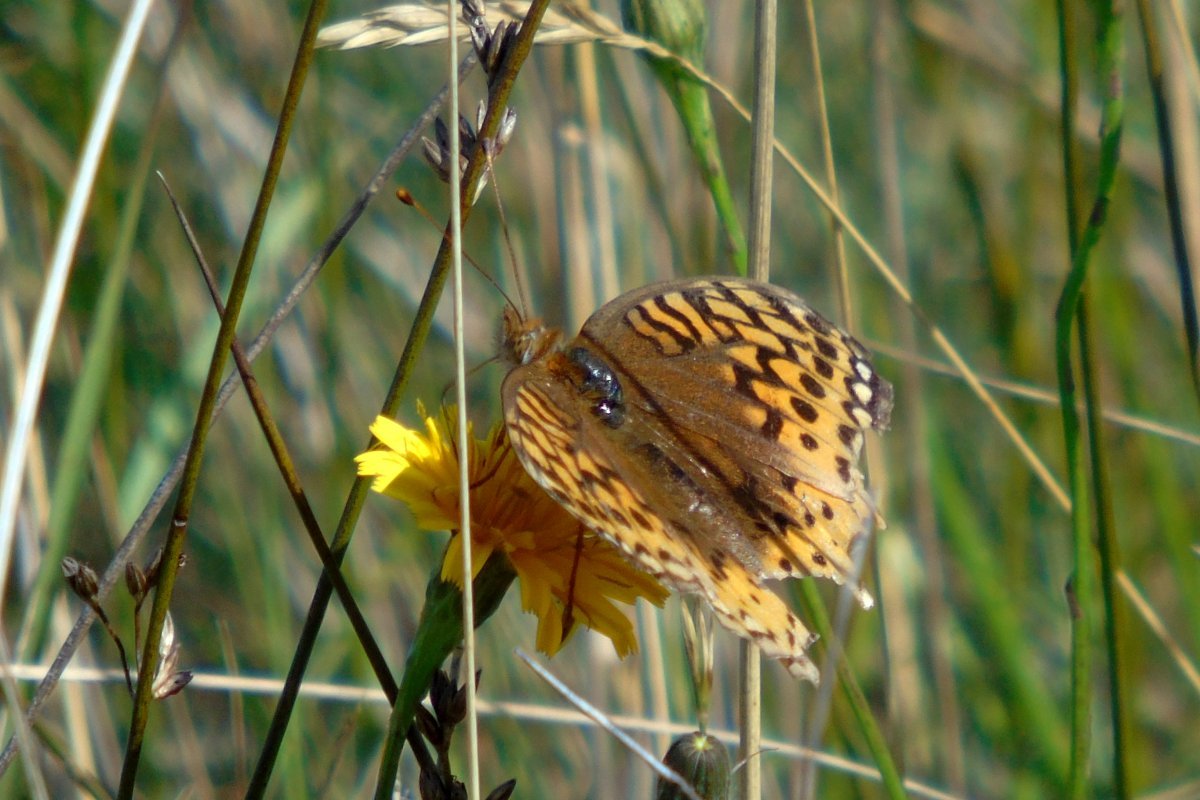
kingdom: Animalia
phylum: Arthropoda
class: Insecta
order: Lepidoptera
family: Nymphalidae
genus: Speyeria
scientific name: Speyeria atlantis
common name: Atlantis Fritillary
